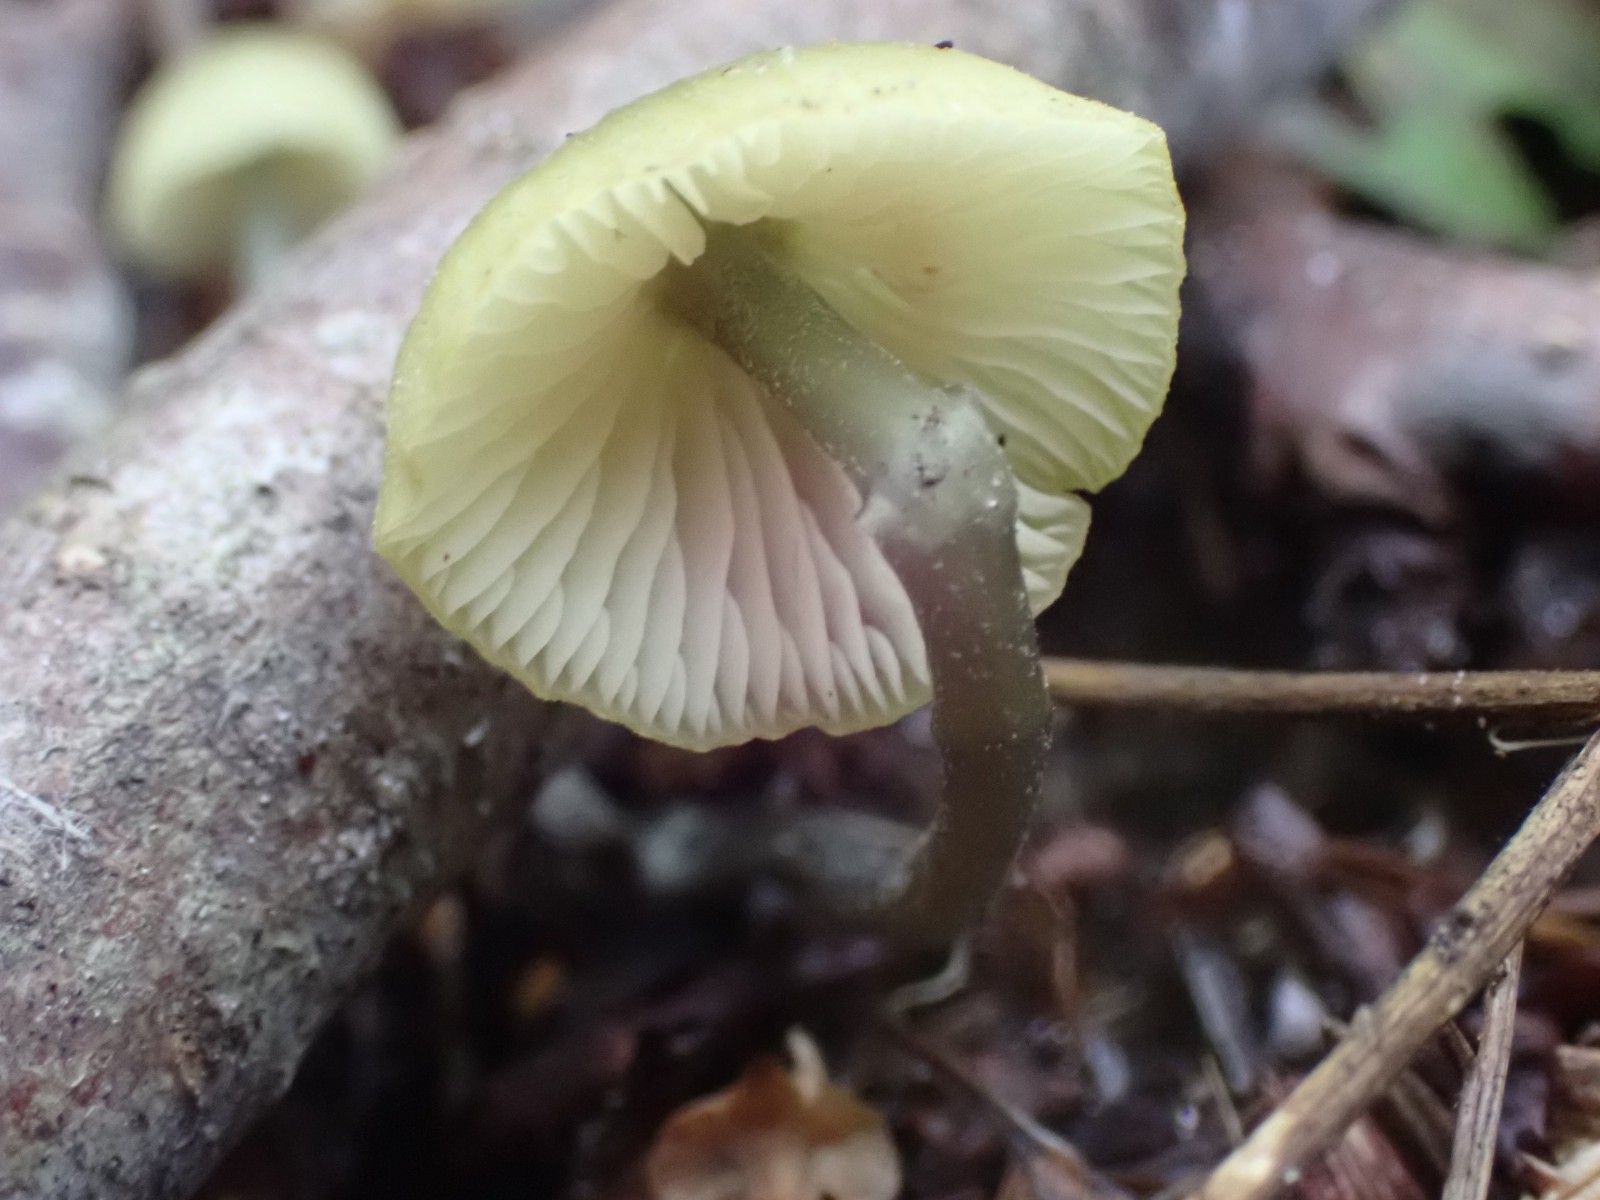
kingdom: Fungi
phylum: Basidiomycota
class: Agaricomycetes
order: Agaricales
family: Entolomataceae
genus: Entoloma
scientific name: Entoloma pleopodium
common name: duftende rødblad
